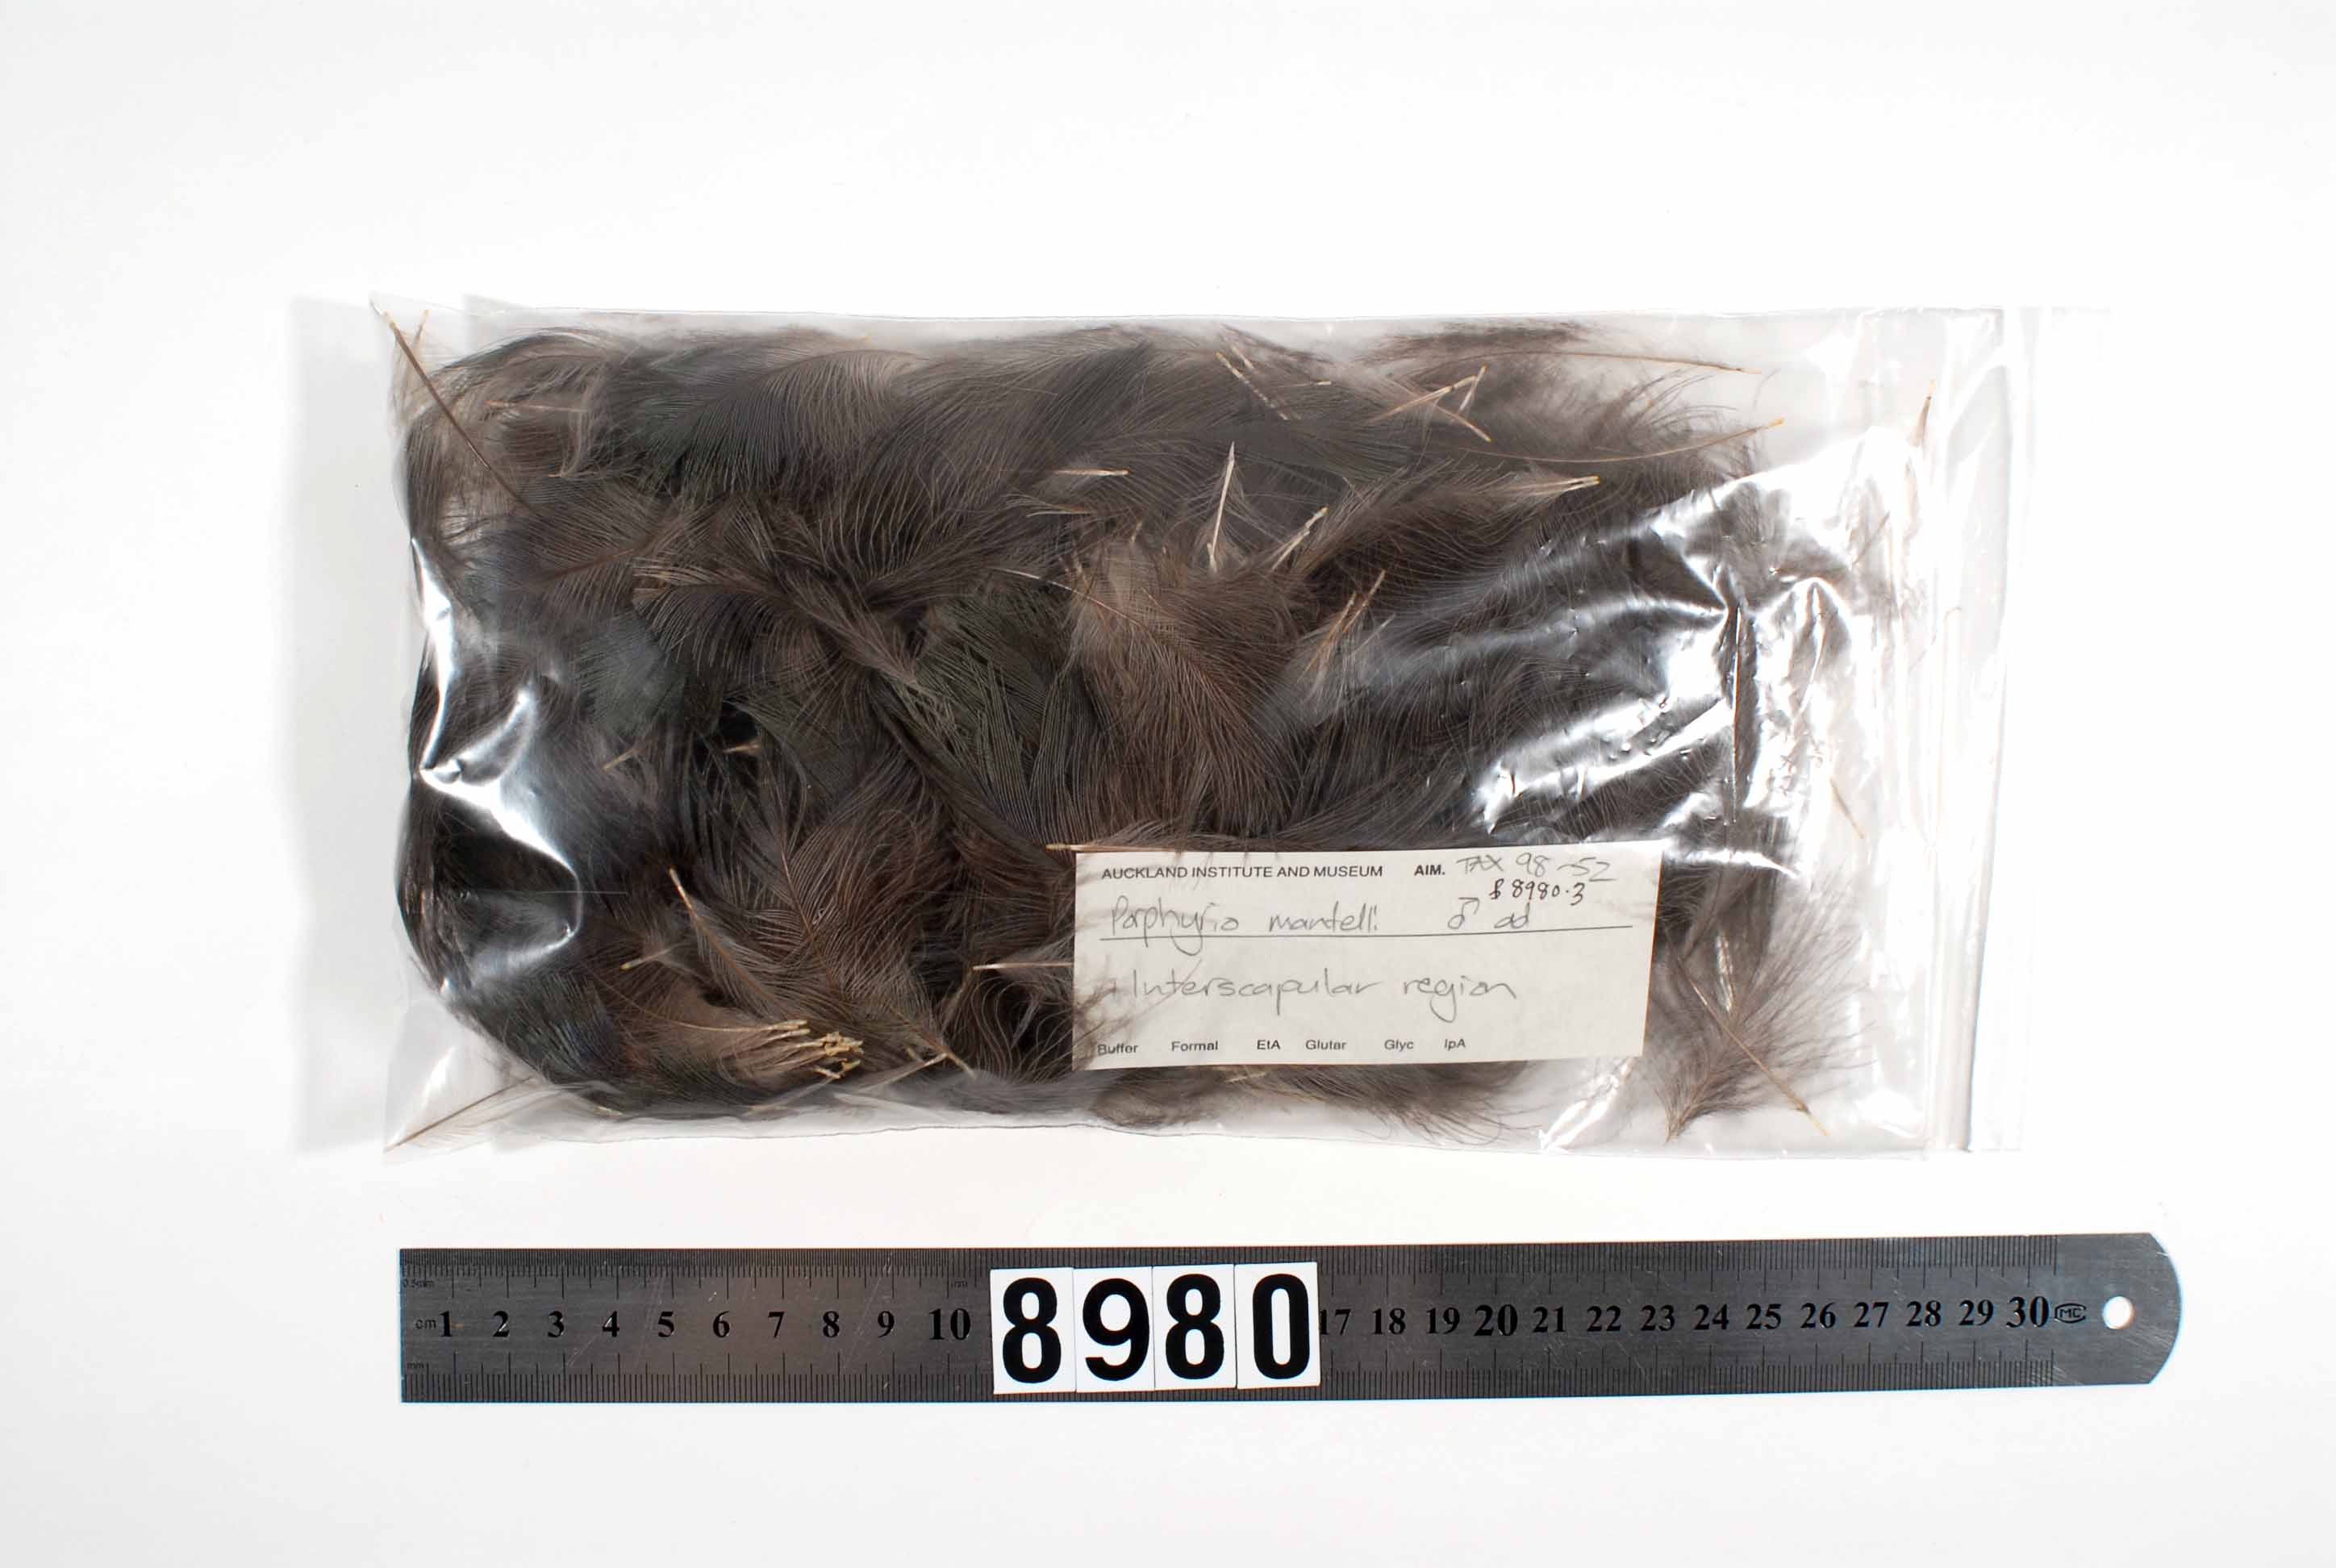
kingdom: Animalia
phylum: Chordata
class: Aves
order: Gruiformes
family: Rallidae
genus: Porphyrio
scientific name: Porphyrio hochstetteri
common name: South island takahe
